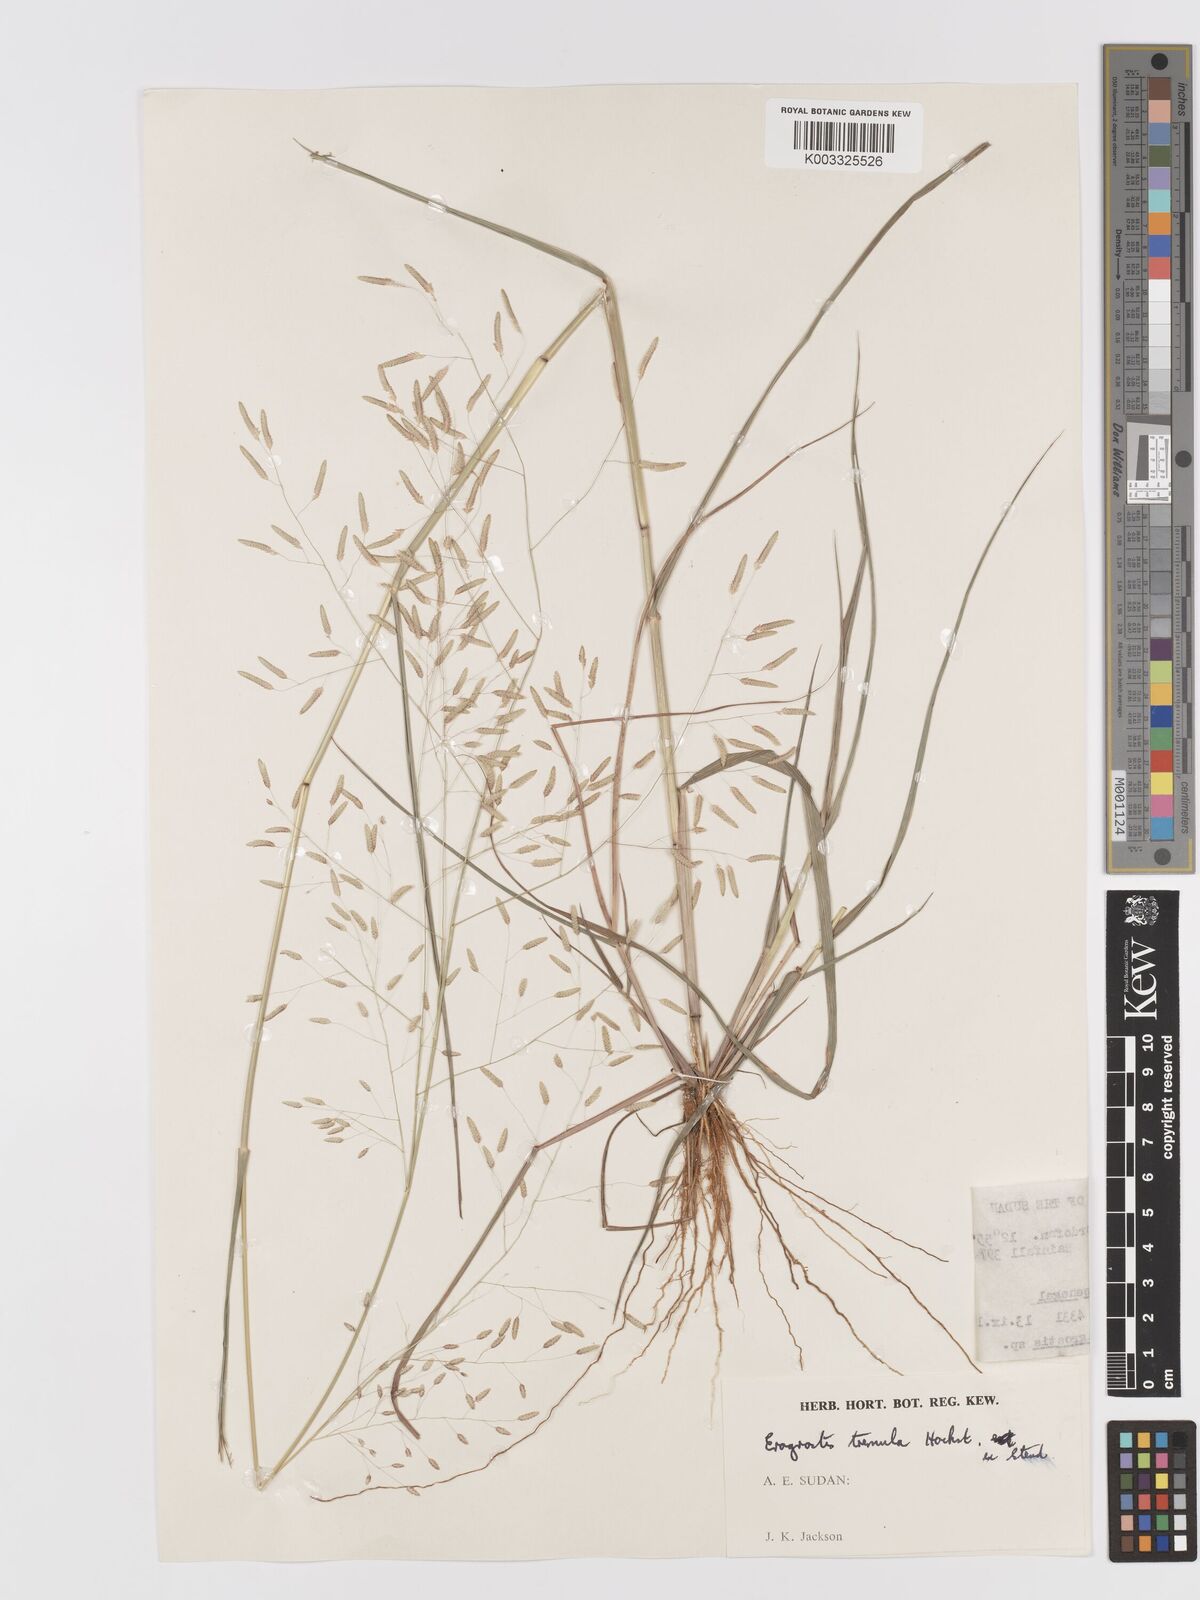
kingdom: Plantae
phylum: Tracheophyta
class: Liliopsida
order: Poales
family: Poaceae
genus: Eragrostis
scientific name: Eragrostis tremula
